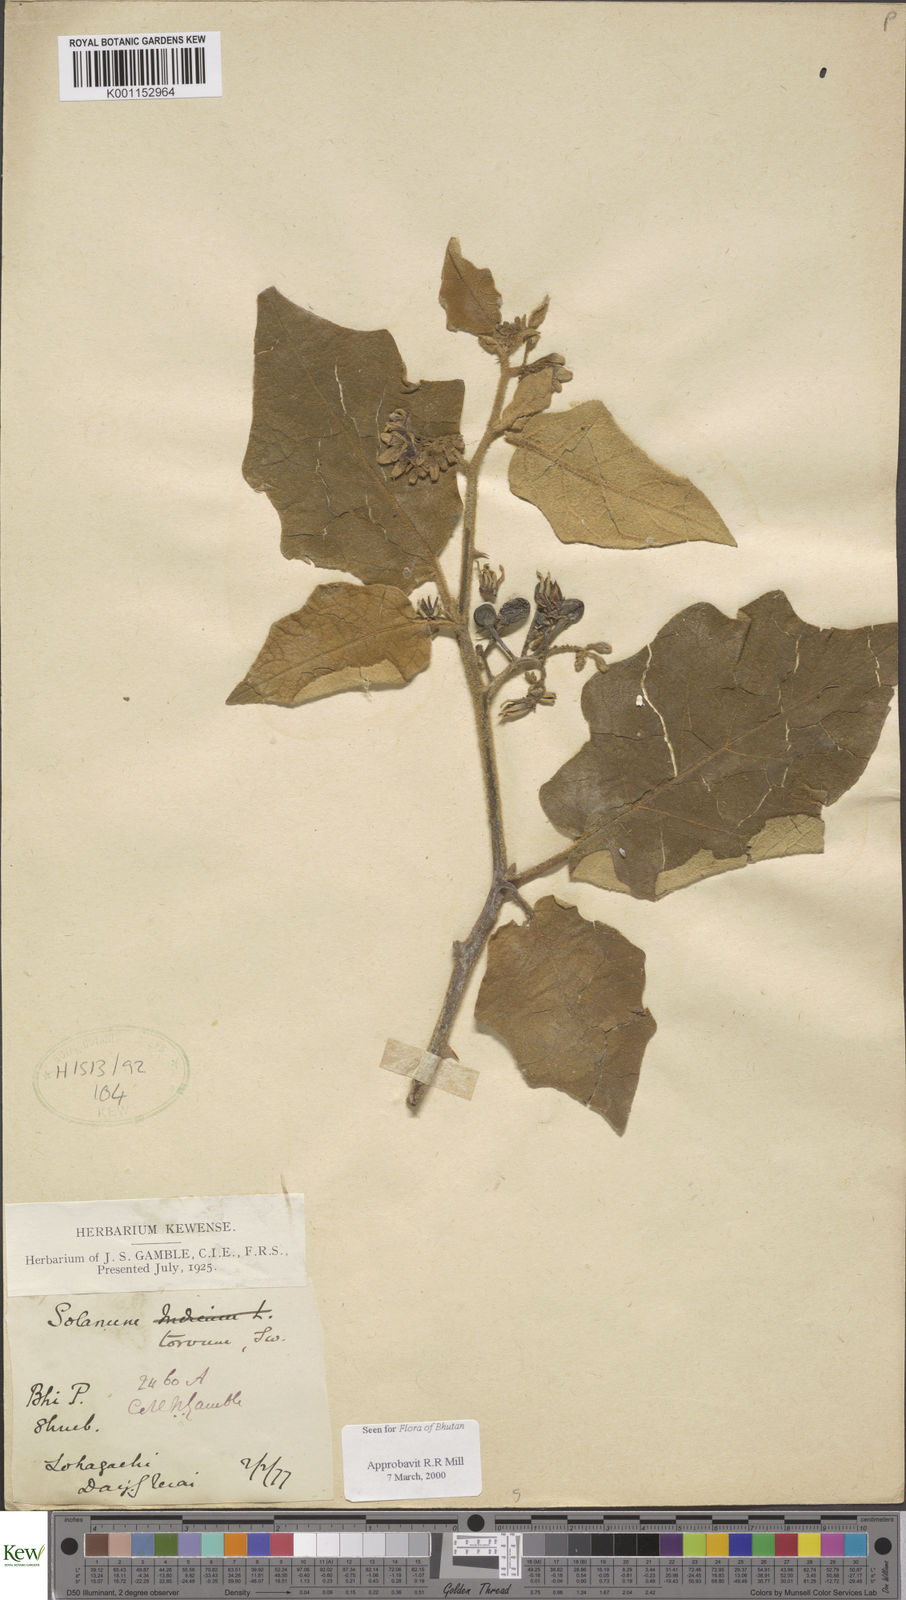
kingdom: Plantae
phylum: Tracheophyta
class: Magnoliopsida
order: Solanales
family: Solanaceae
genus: Solanum
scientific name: Solanum torvum
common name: Turkey berry
